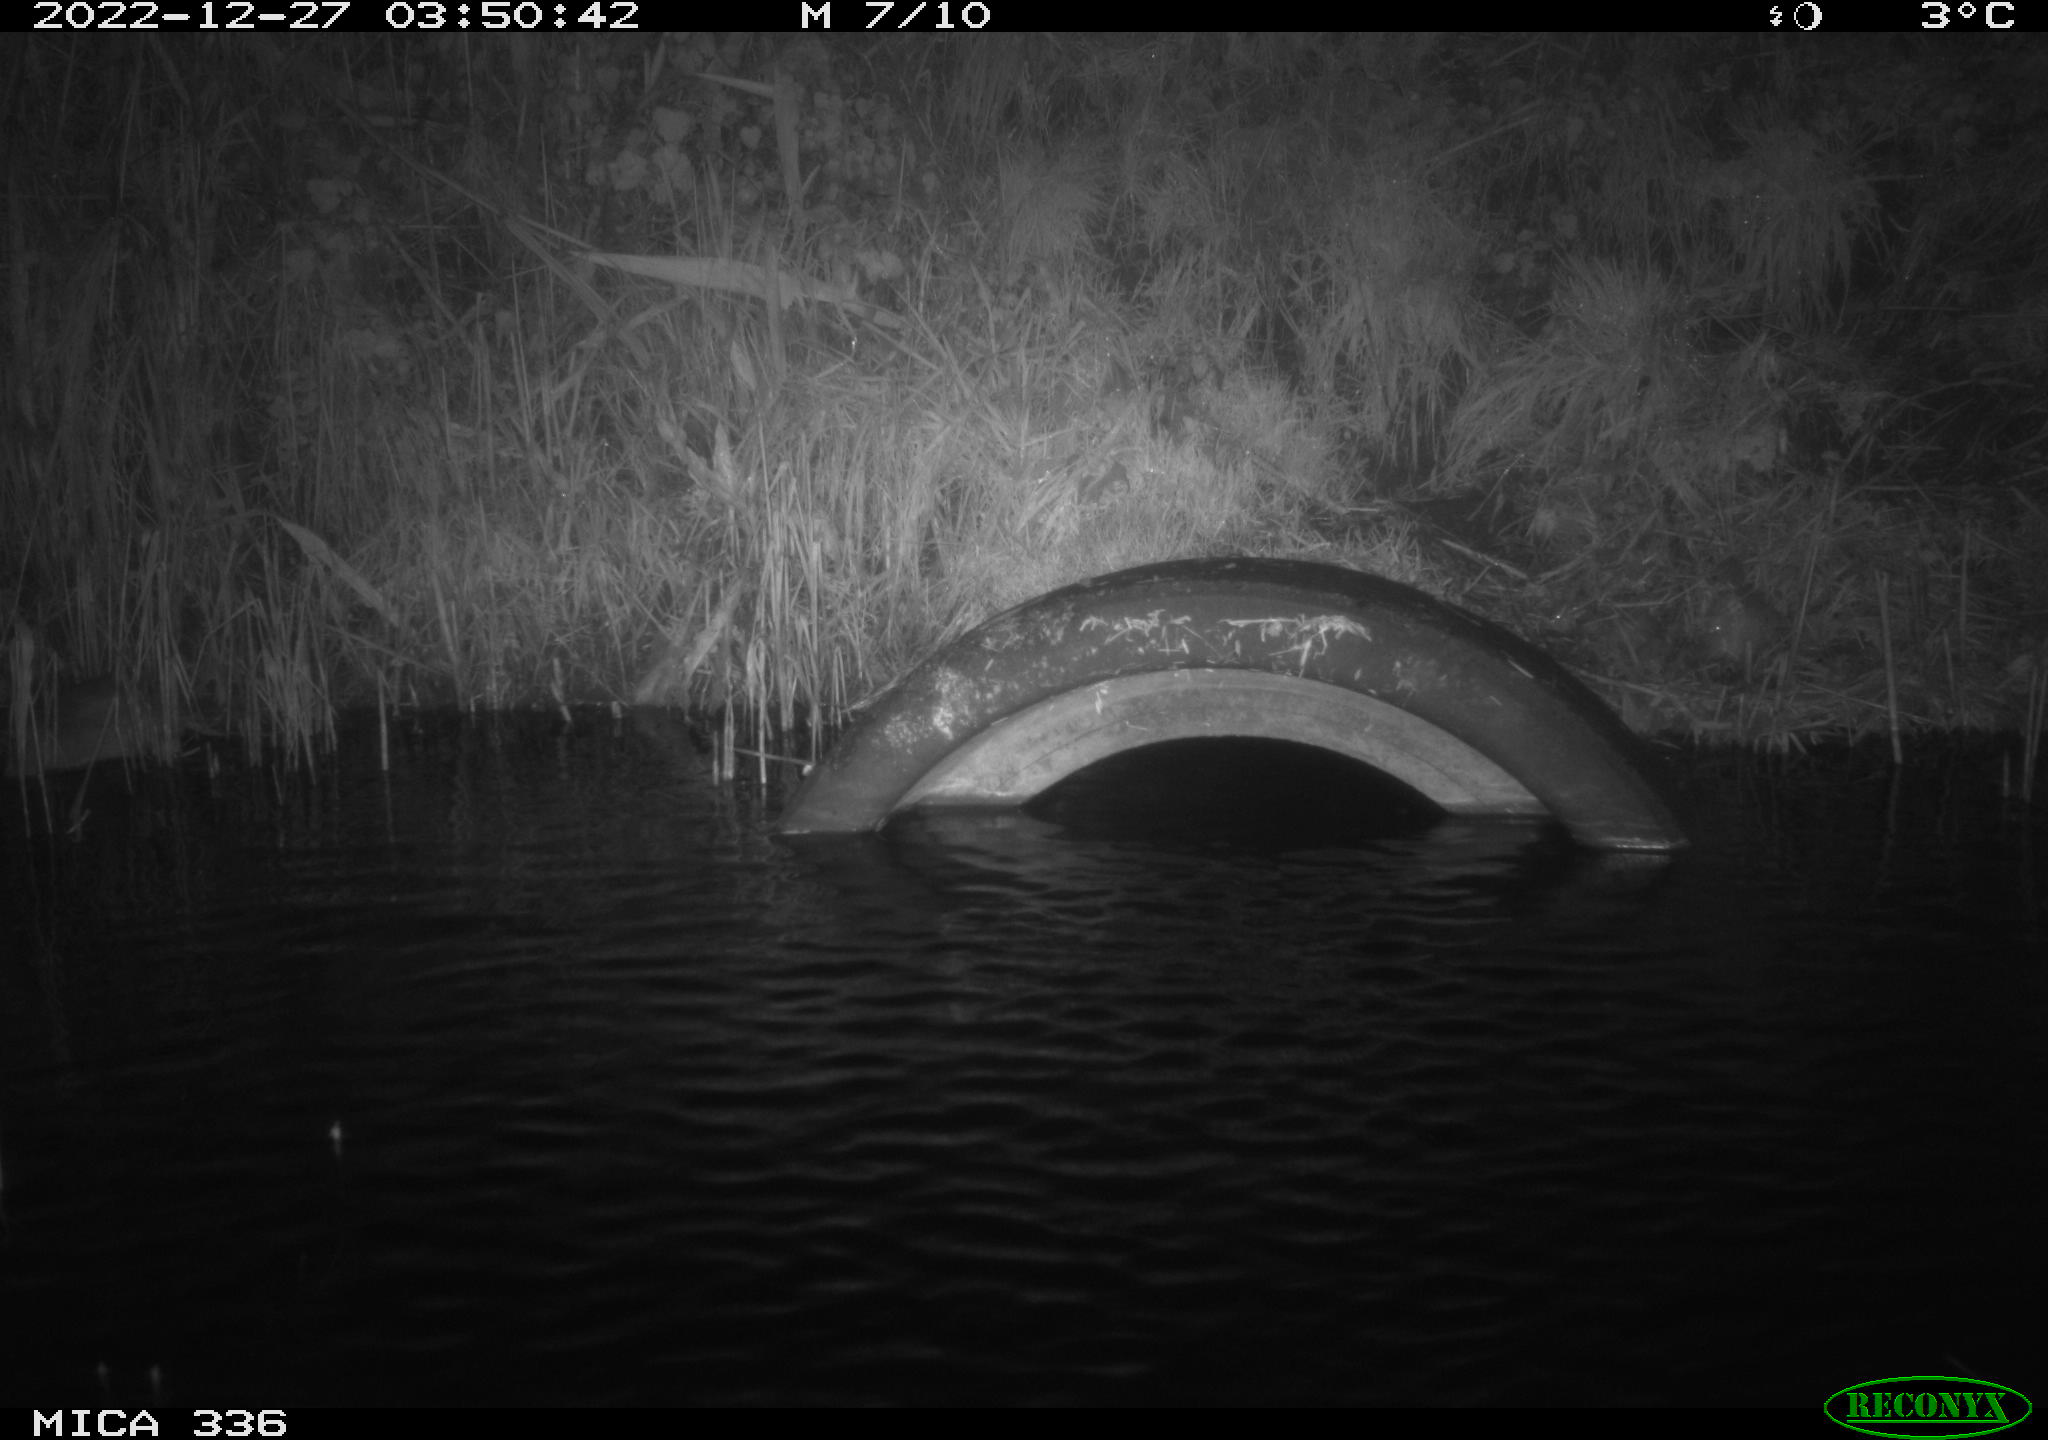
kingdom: Animalia
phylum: Chordata
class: Mammalia
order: Rodentia
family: Muridae
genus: Rattus
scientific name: Rattus norvegicus
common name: Brown rat
